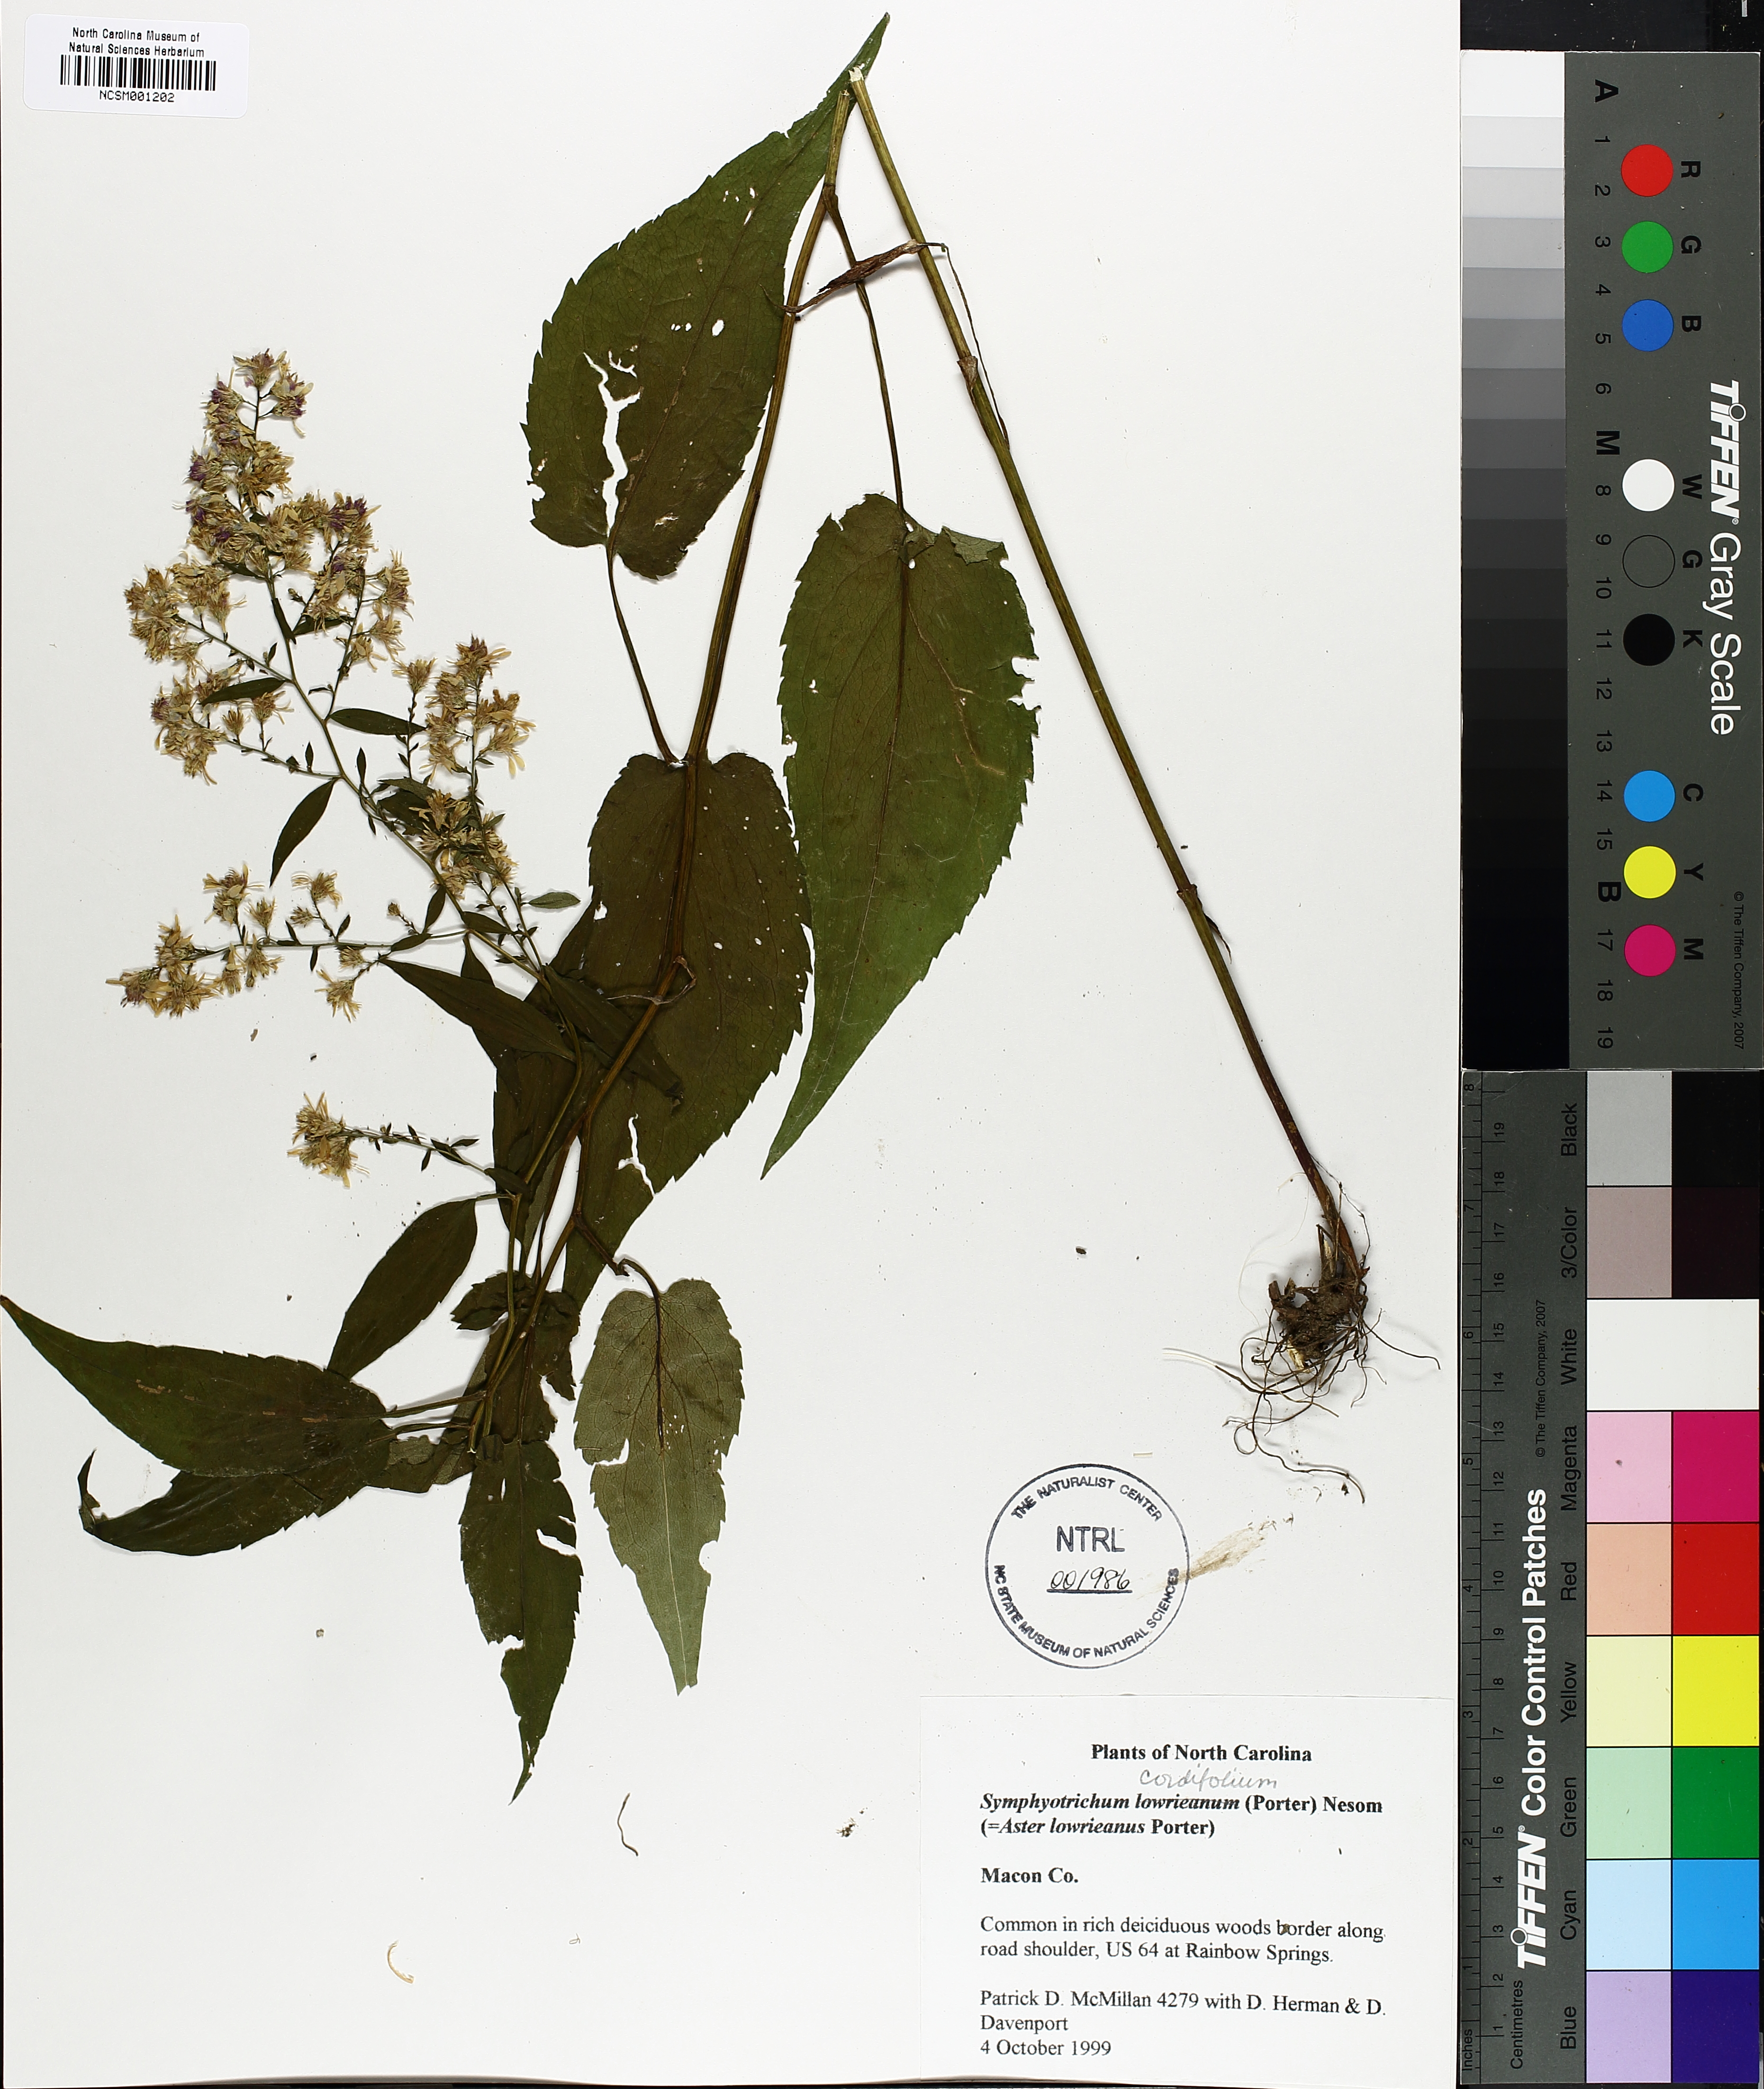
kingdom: Plantae
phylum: Tracheophyta
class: Magnoliopsida
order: Asterales
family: Asteraceae
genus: Symphyotrichum
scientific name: Symphyotrichum cordifolium
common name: Beeweed
